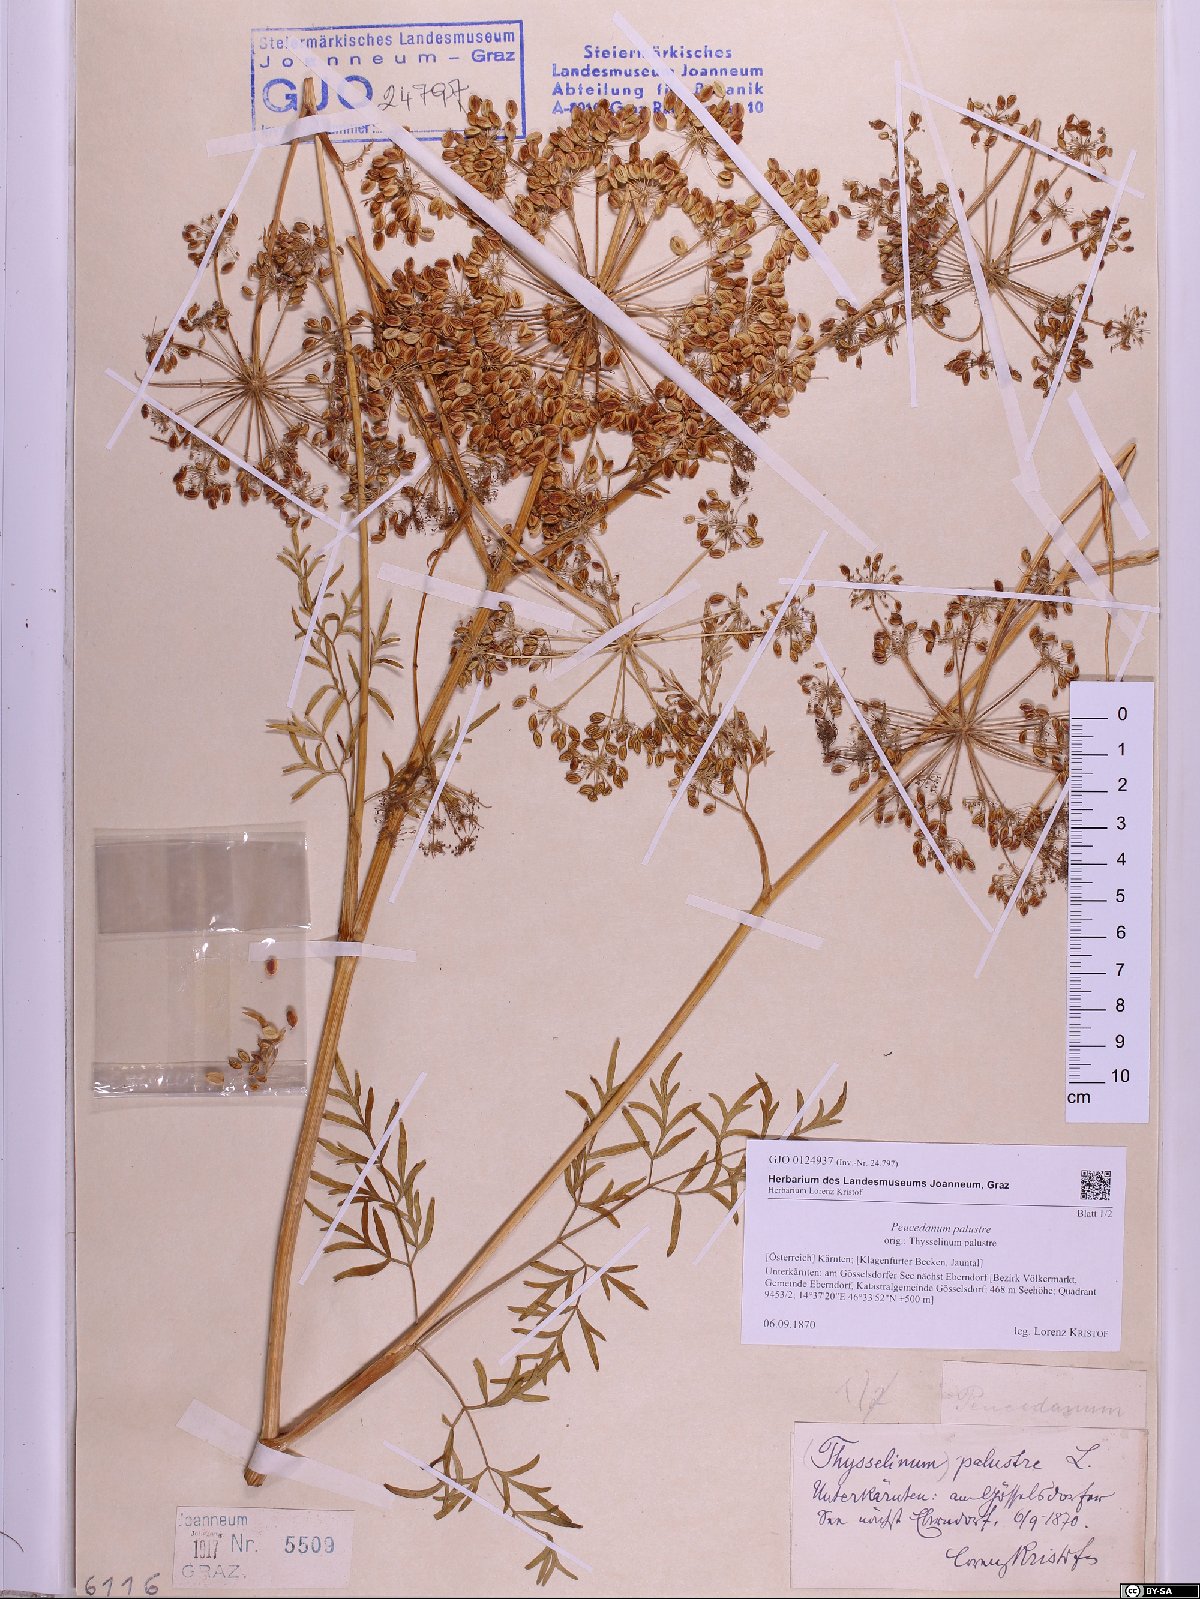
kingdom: Plantae
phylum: Tracheophyta
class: Magnoliopsida
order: Apiales
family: Apiaceae
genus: Thysselinum
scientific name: Thysselinum palustre
